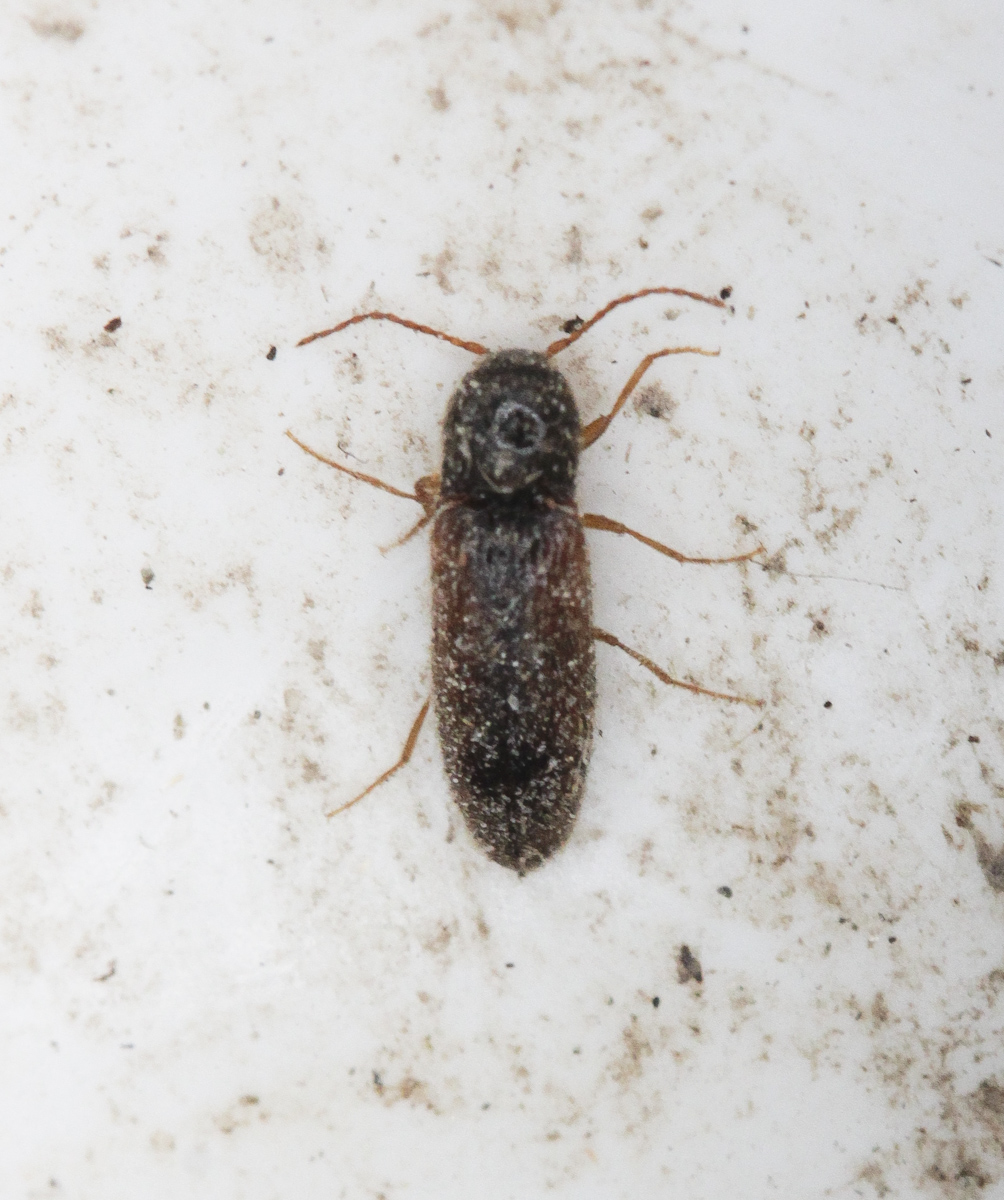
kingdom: Animalia
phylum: Arthropoda
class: Insecta
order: Coleoptera
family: Elateridae
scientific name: Elateridae
